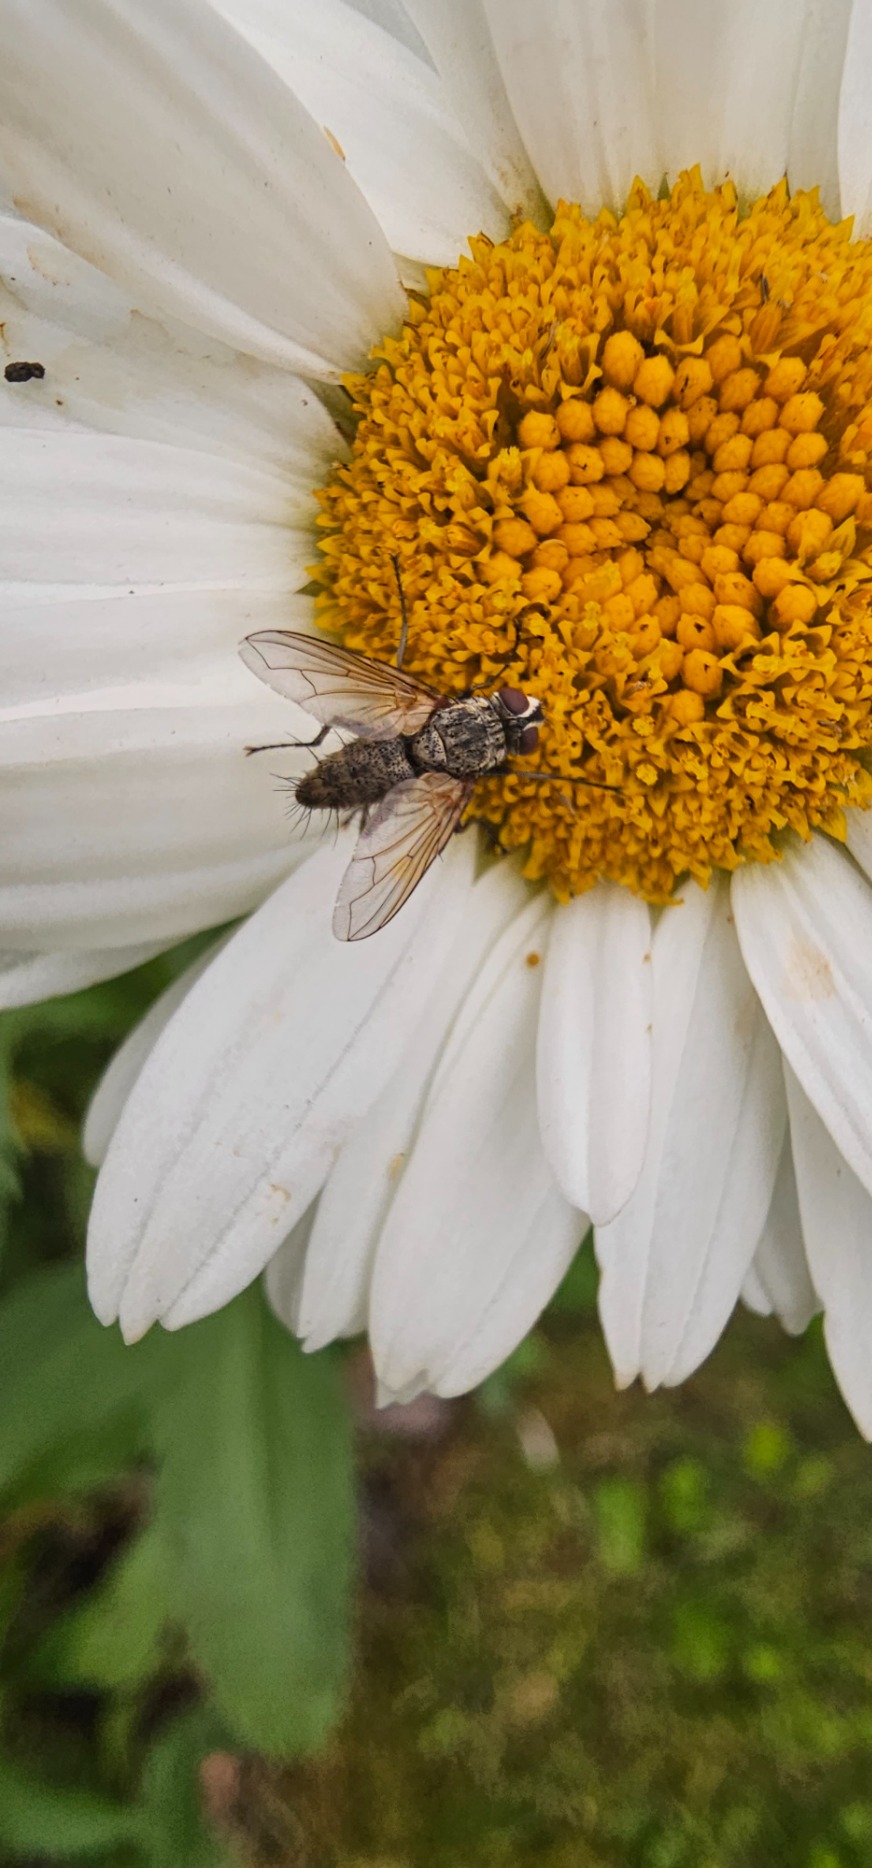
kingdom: Animalia
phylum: Arthropoda
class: Insecta
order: Diptera
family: Tachinidae
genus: Dinera
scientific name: Dinera grisescens
